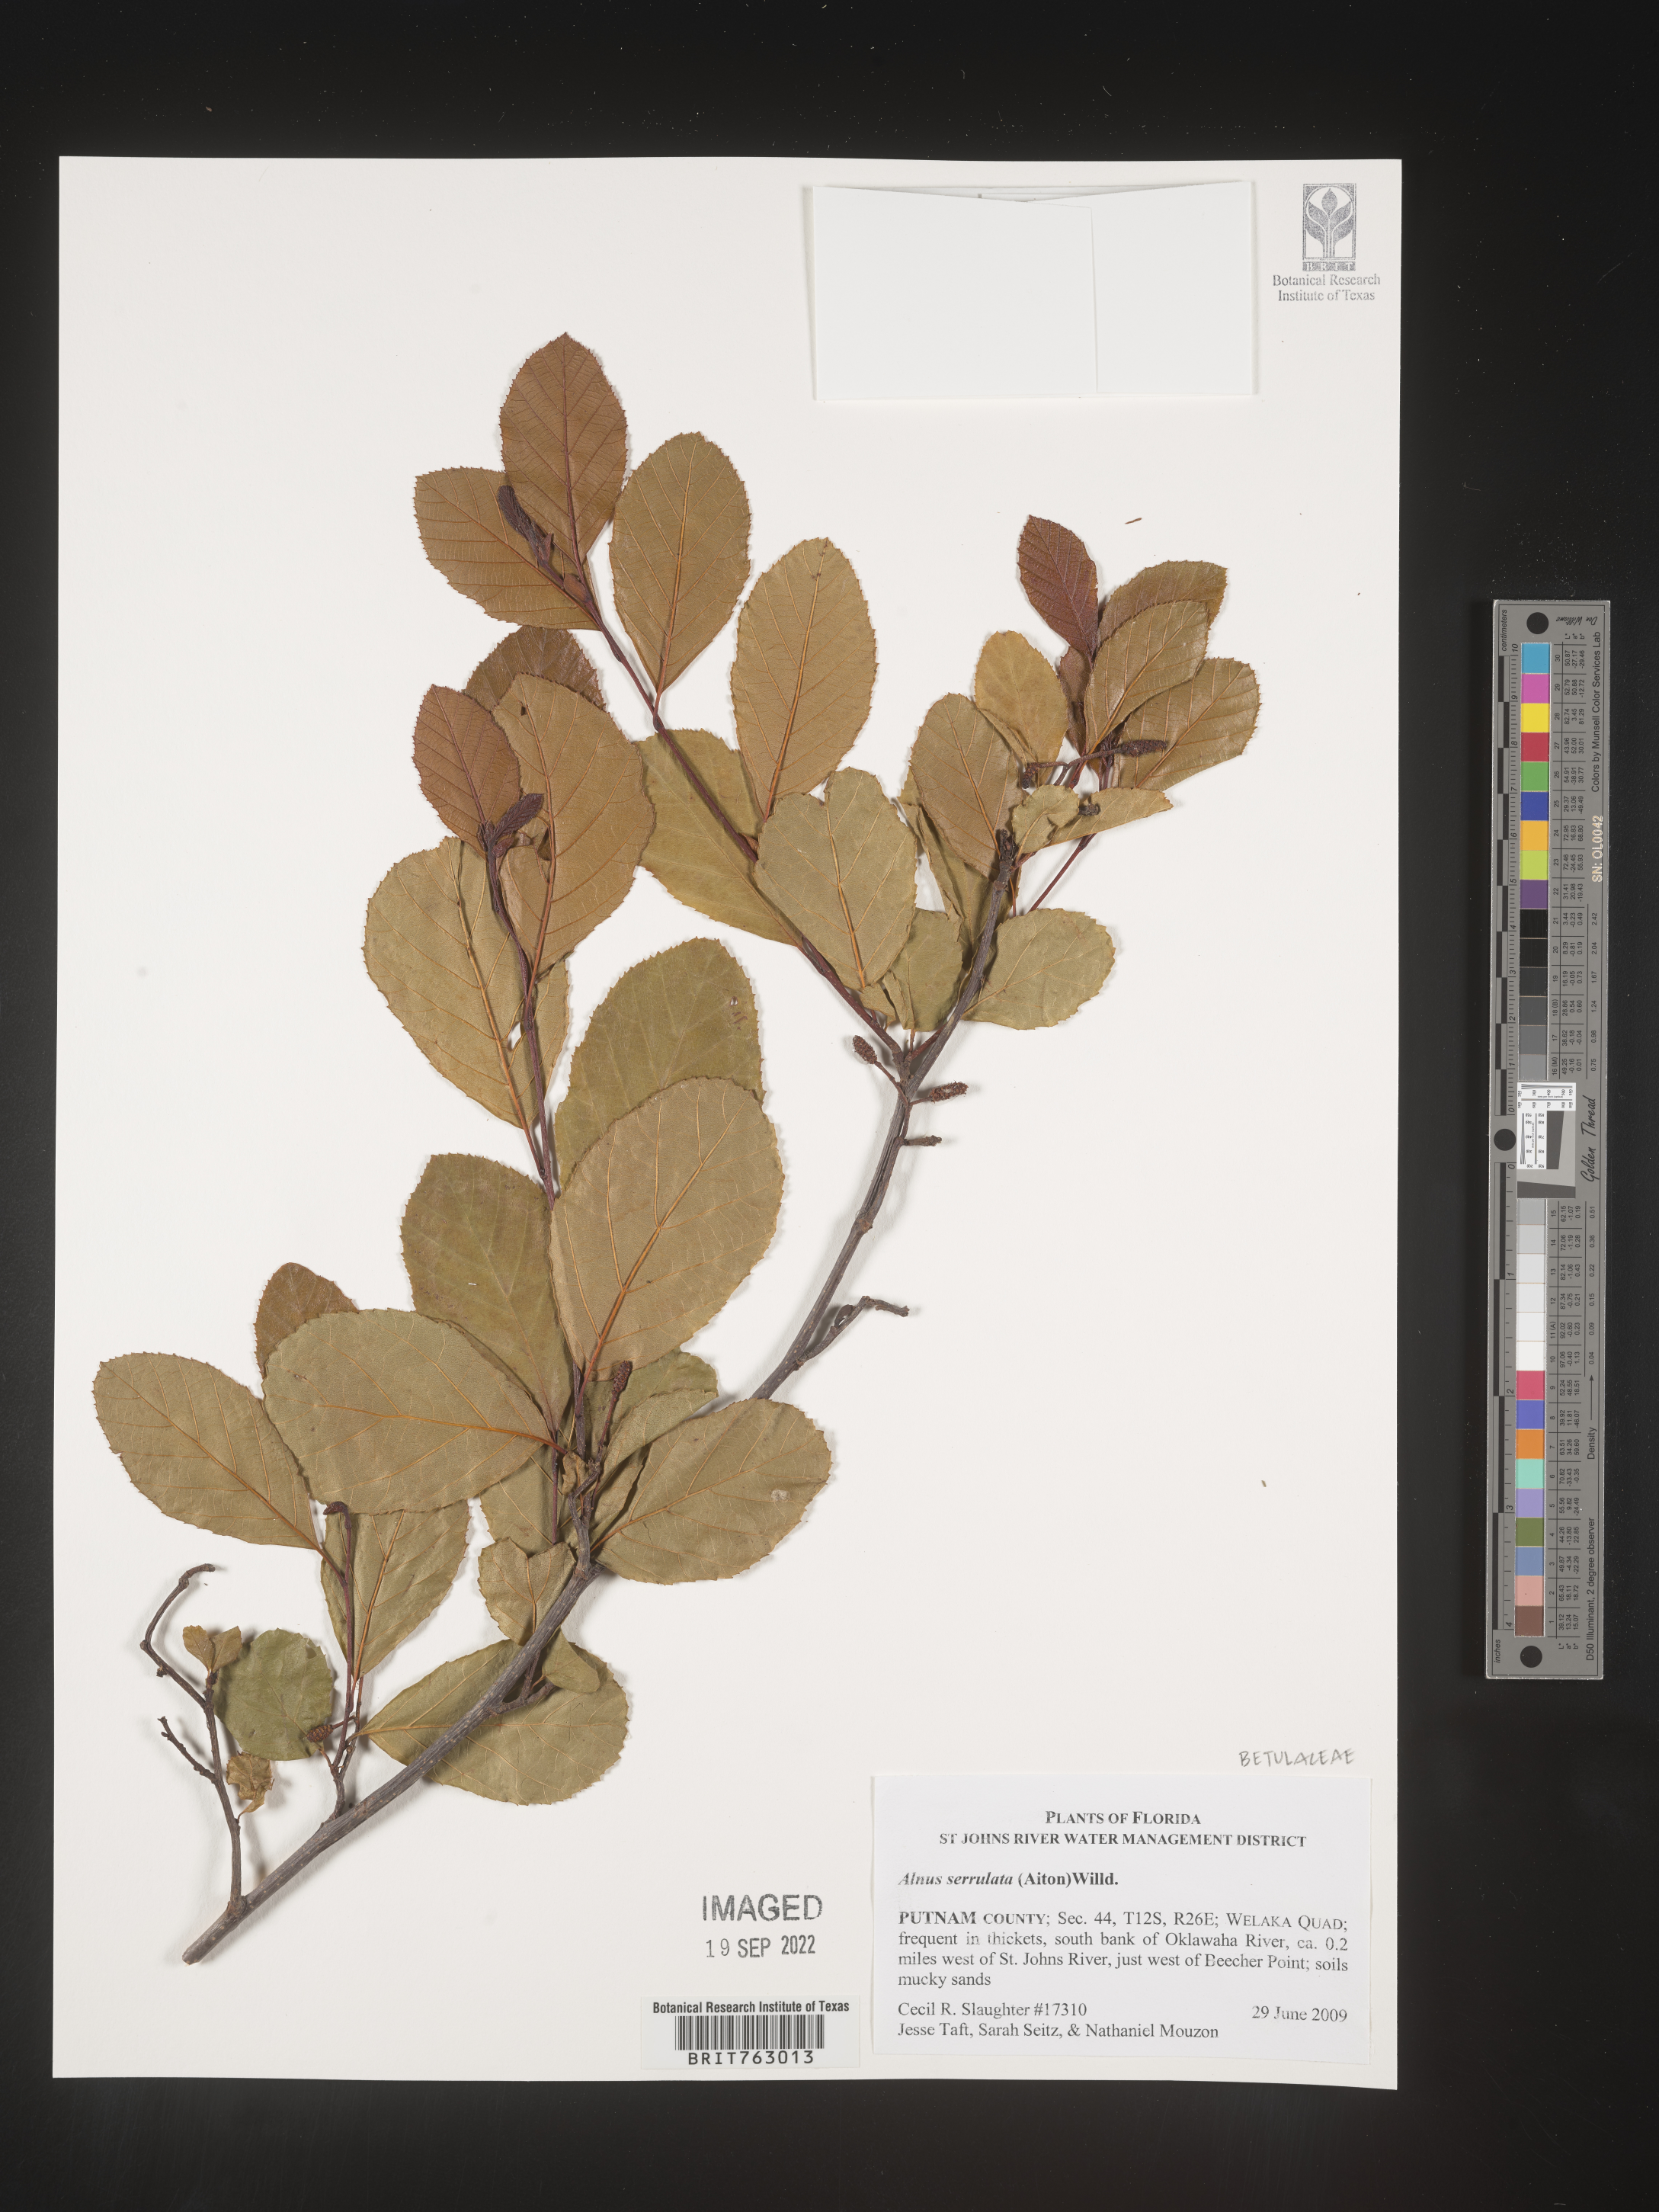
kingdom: Plantae
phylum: Tracheophyta
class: Magnoliopsida
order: Fagales
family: Betulaceae
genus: Alnus
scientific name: Alnus serrulata
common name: Hazel alder
